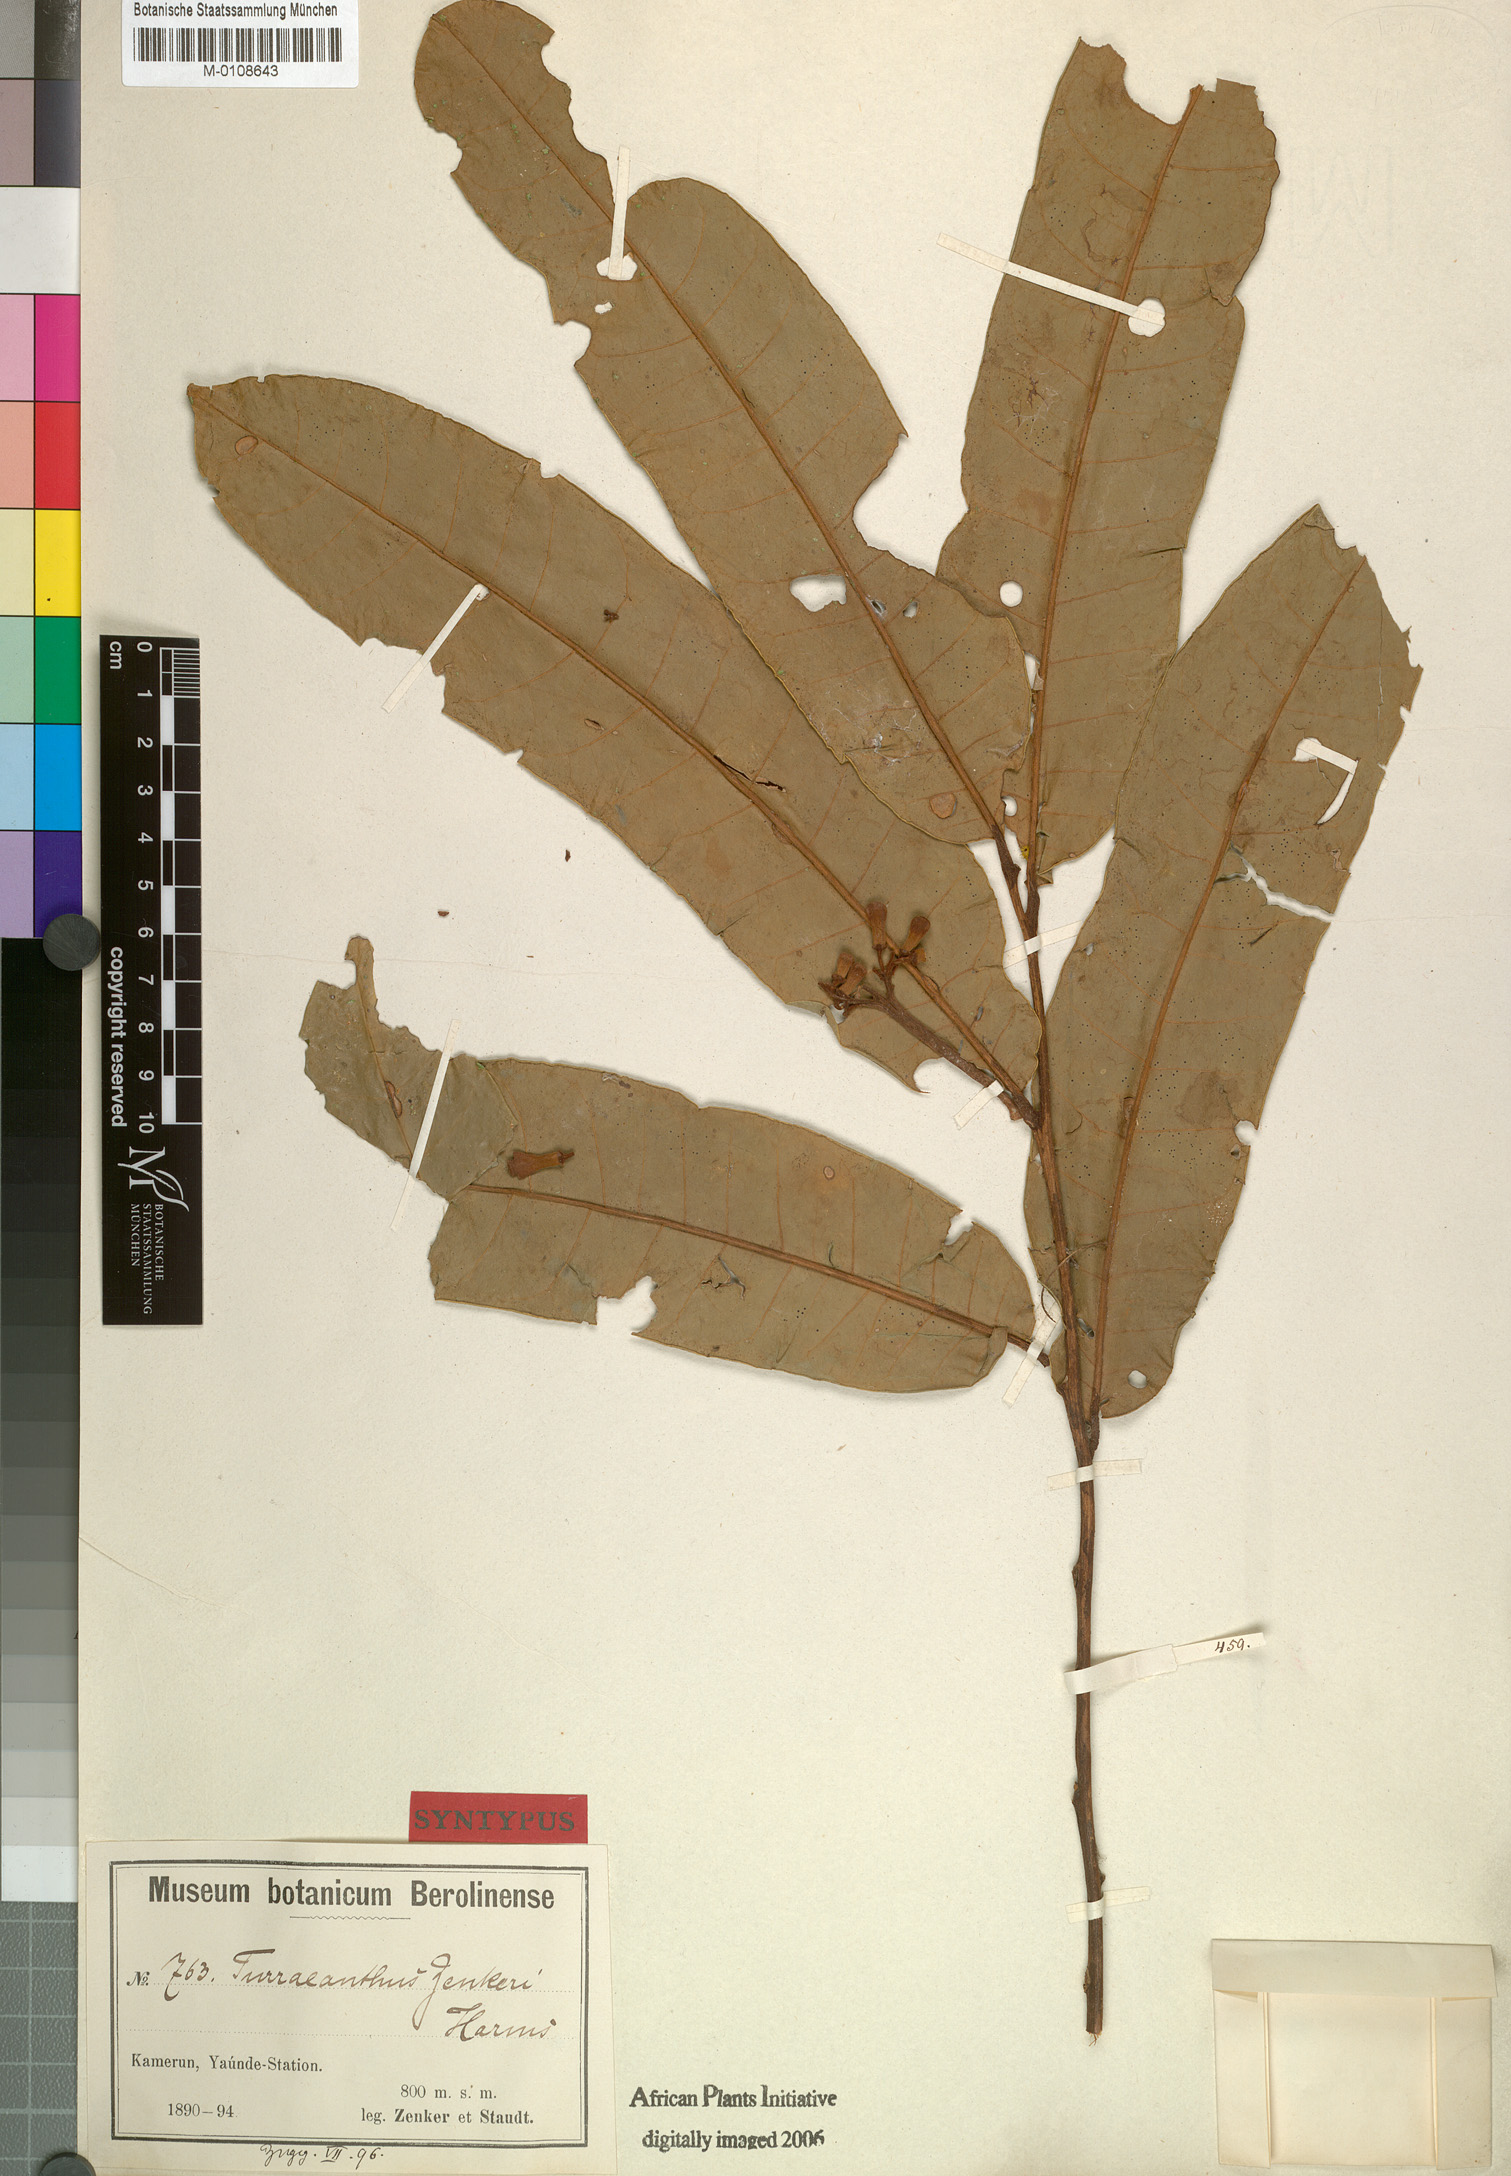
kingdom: Plantae
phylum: Tracheophyta
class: Magnoliopsida
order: Sapindales
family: Meliaceae
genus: Turraeanthus
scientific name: Turraeanthus africanus
